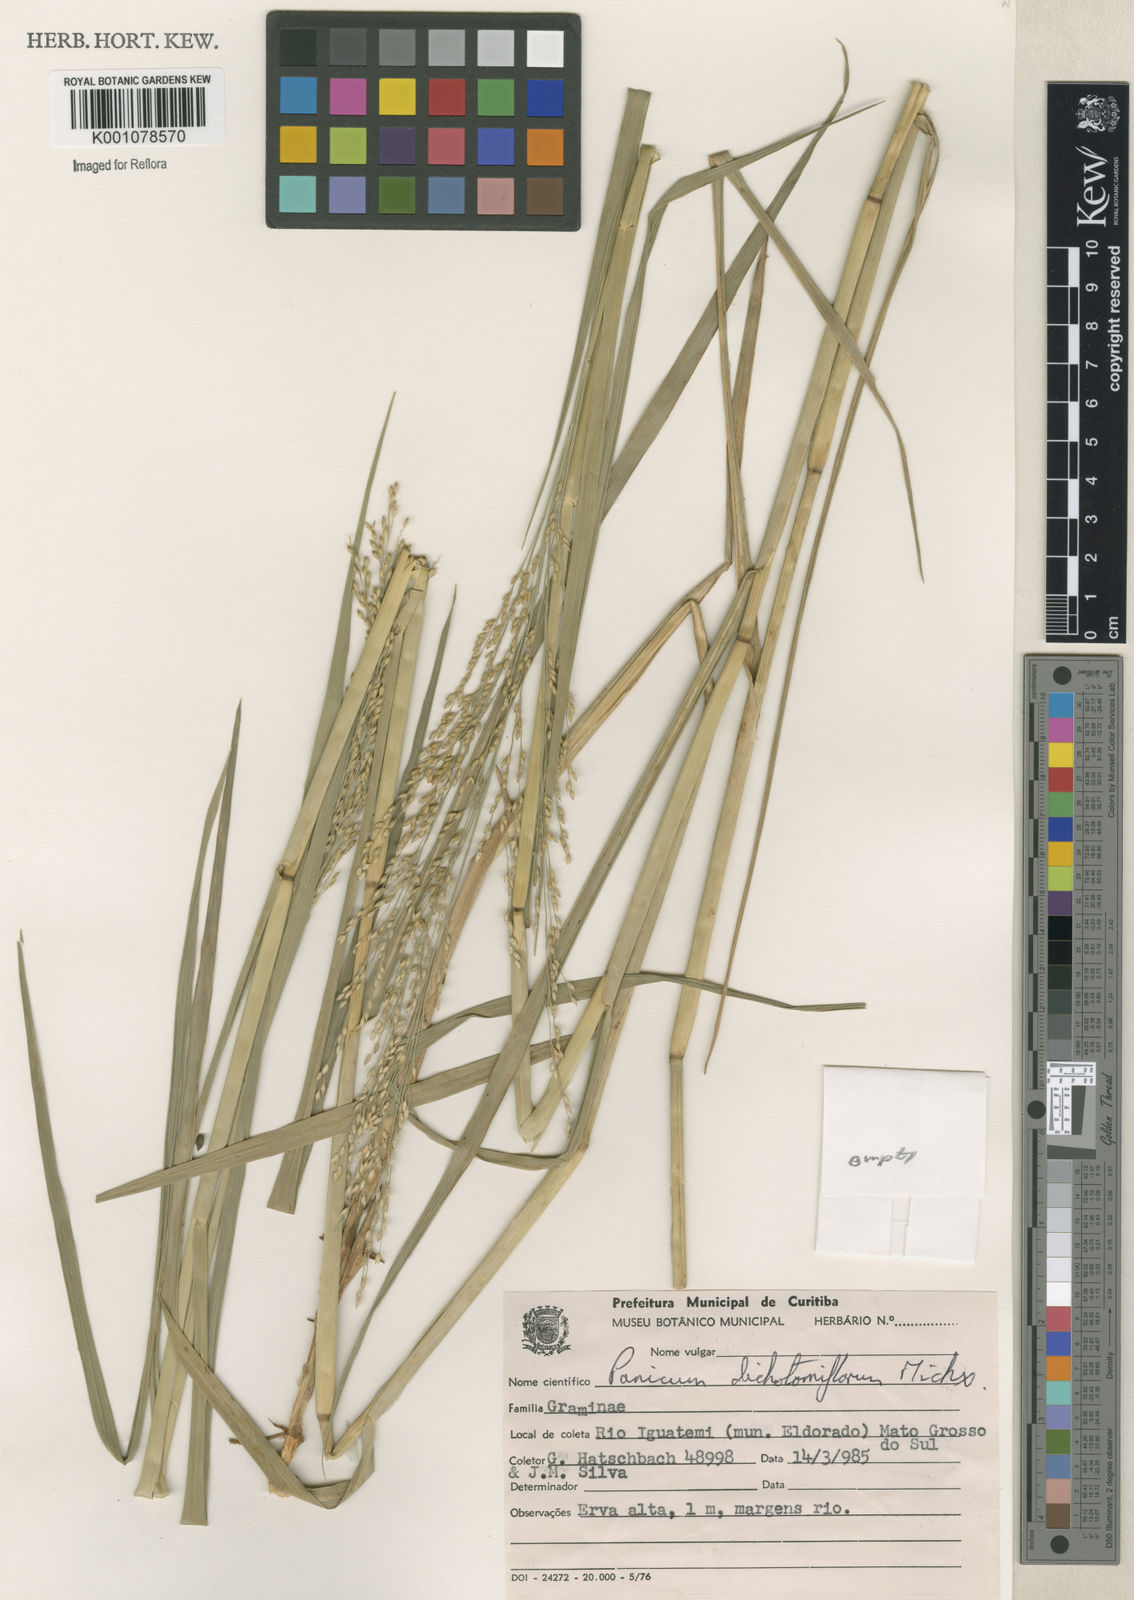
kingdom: Plantae
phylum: Tracheophyta
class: Liliopsida
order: Poales
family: Poaceae
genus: Panicum
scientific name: Panicum dichotomiflorum
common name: Autumn millet
